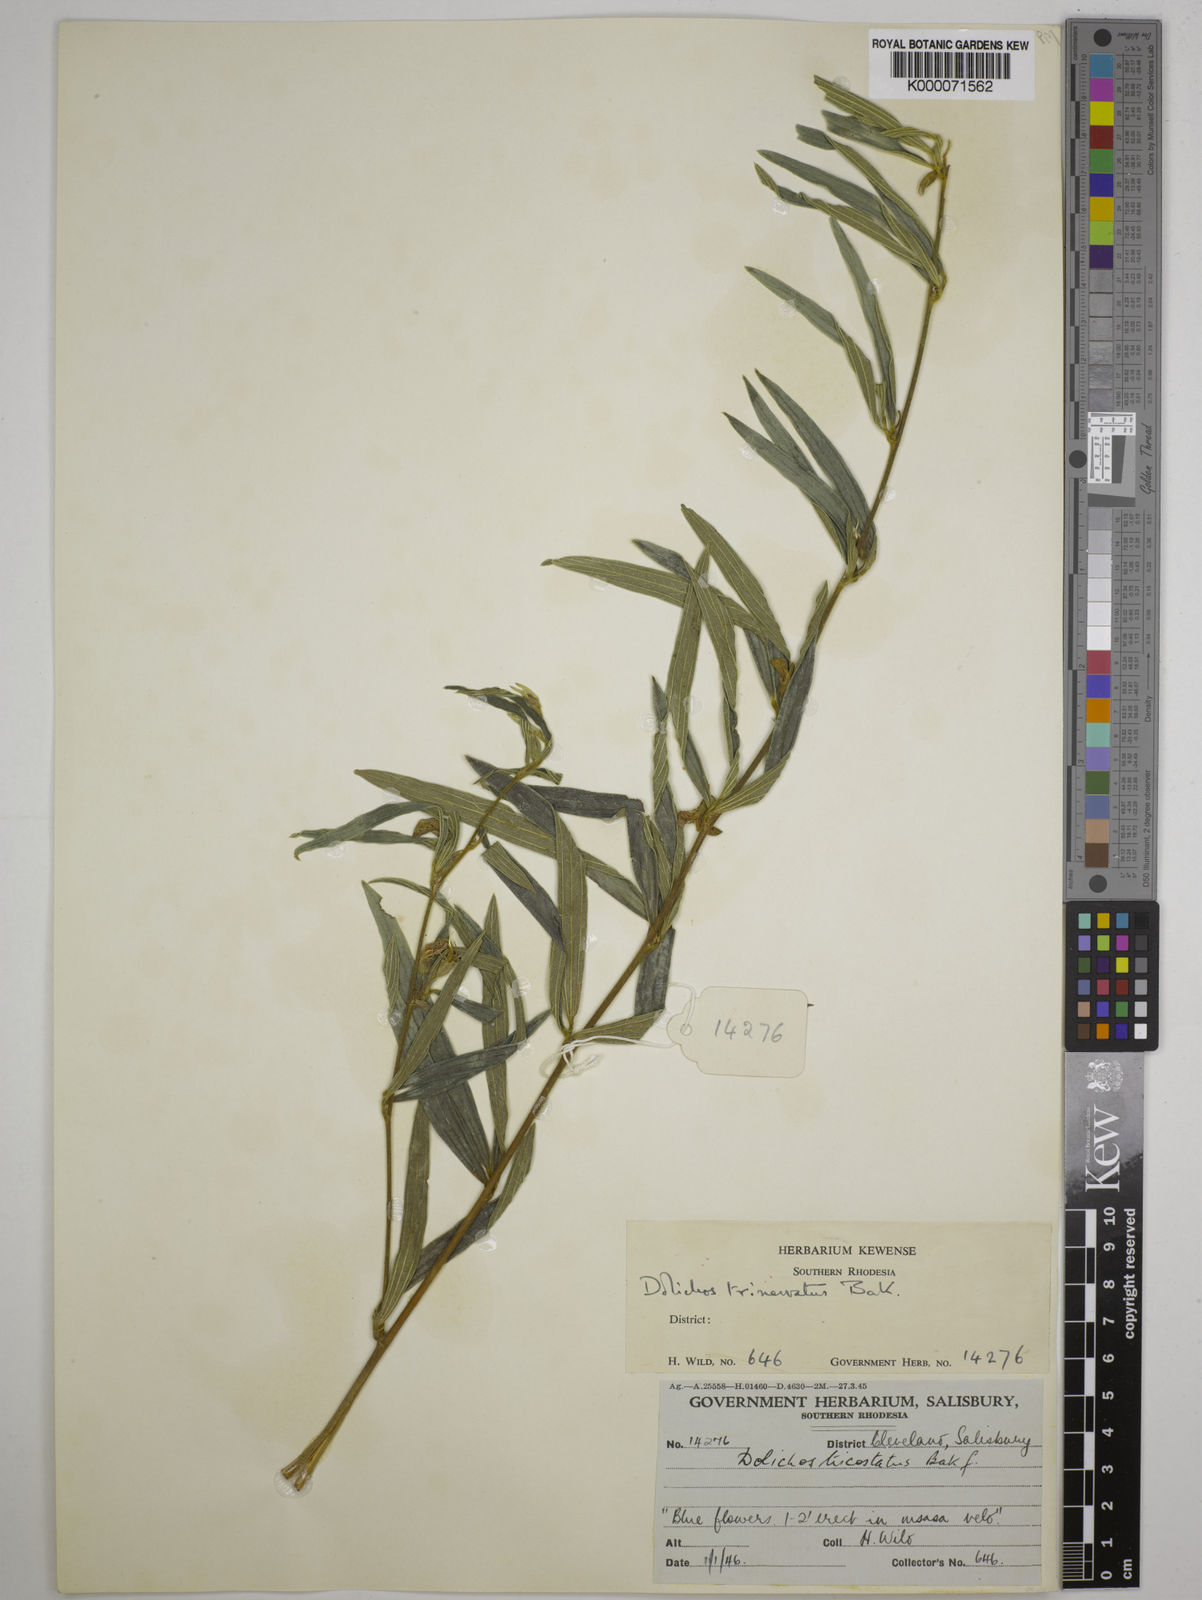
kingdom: Plantae
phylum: Tracheophyta
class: Magnoliopsida
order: Fabales
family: Fabaceae
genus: Dolichos
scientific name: Dolichos trinervatus
